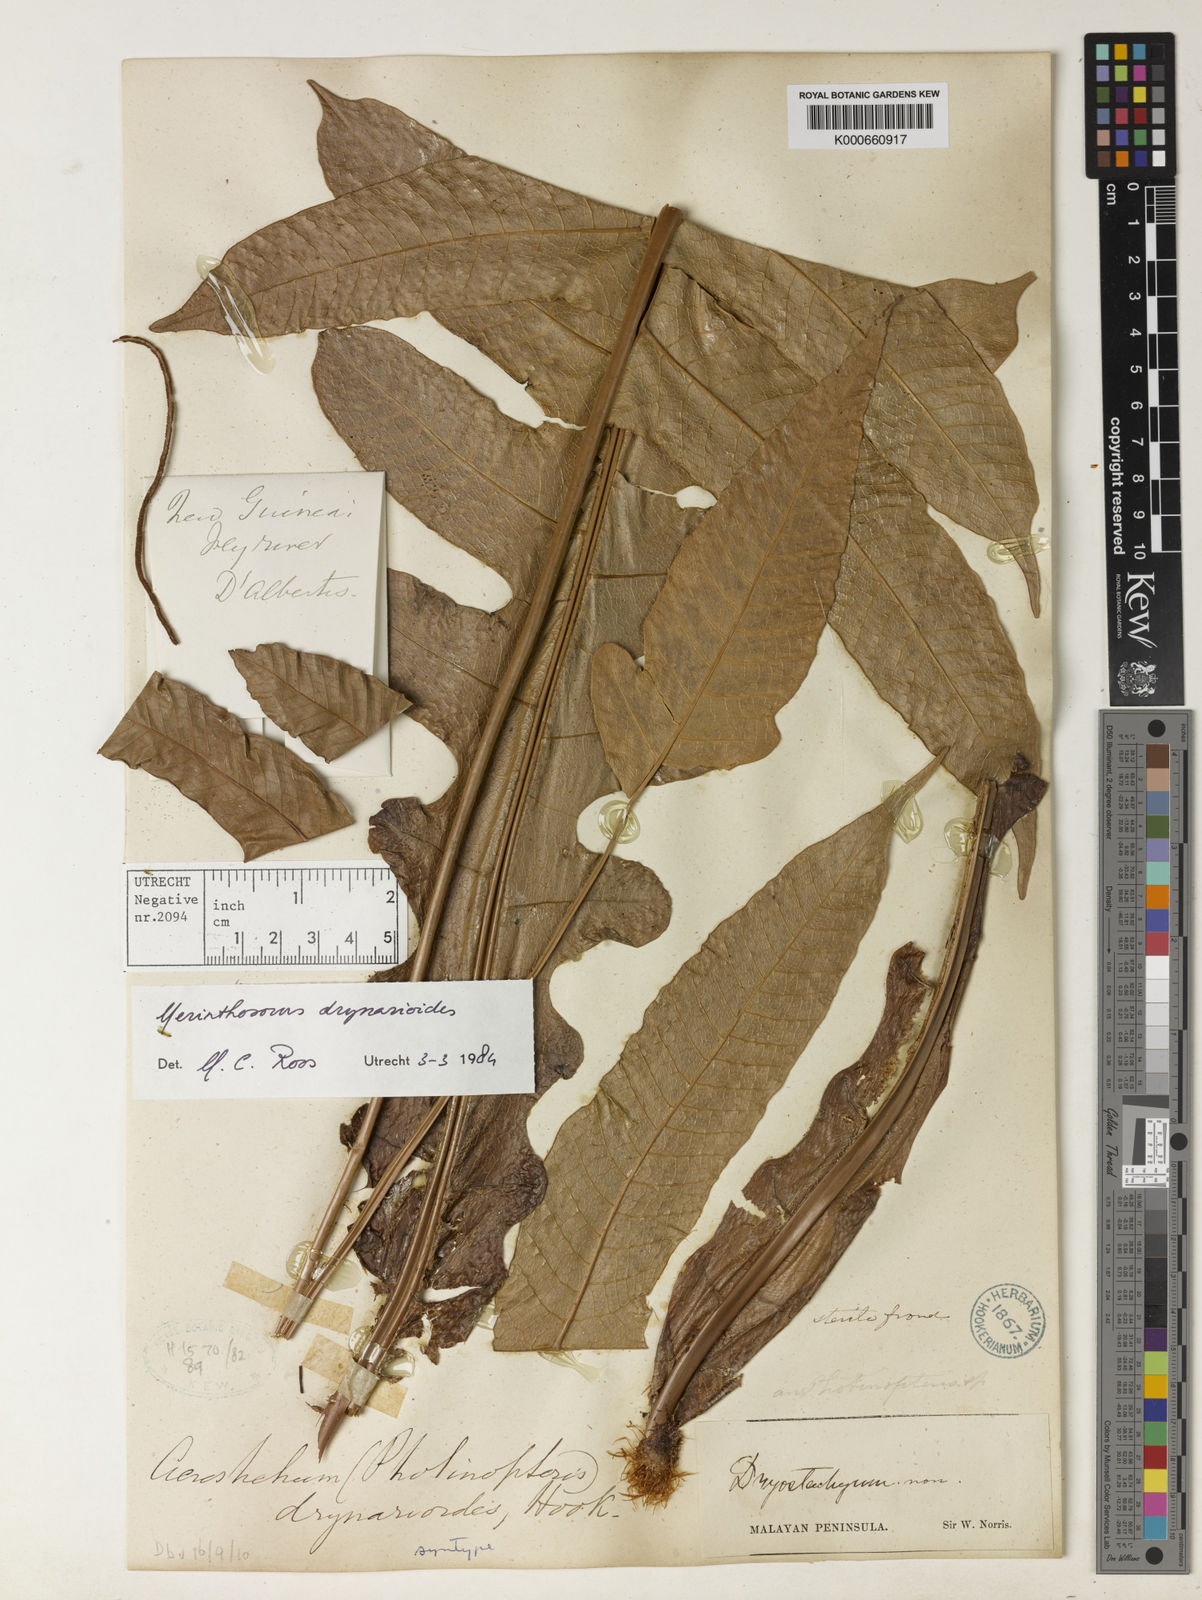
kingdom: Plantae
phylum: Tracheophyta
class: Polypodiopsida
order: Polypodiales
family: Polypodiaceae
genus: Drynaria
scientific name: Drynaria drynarioides
